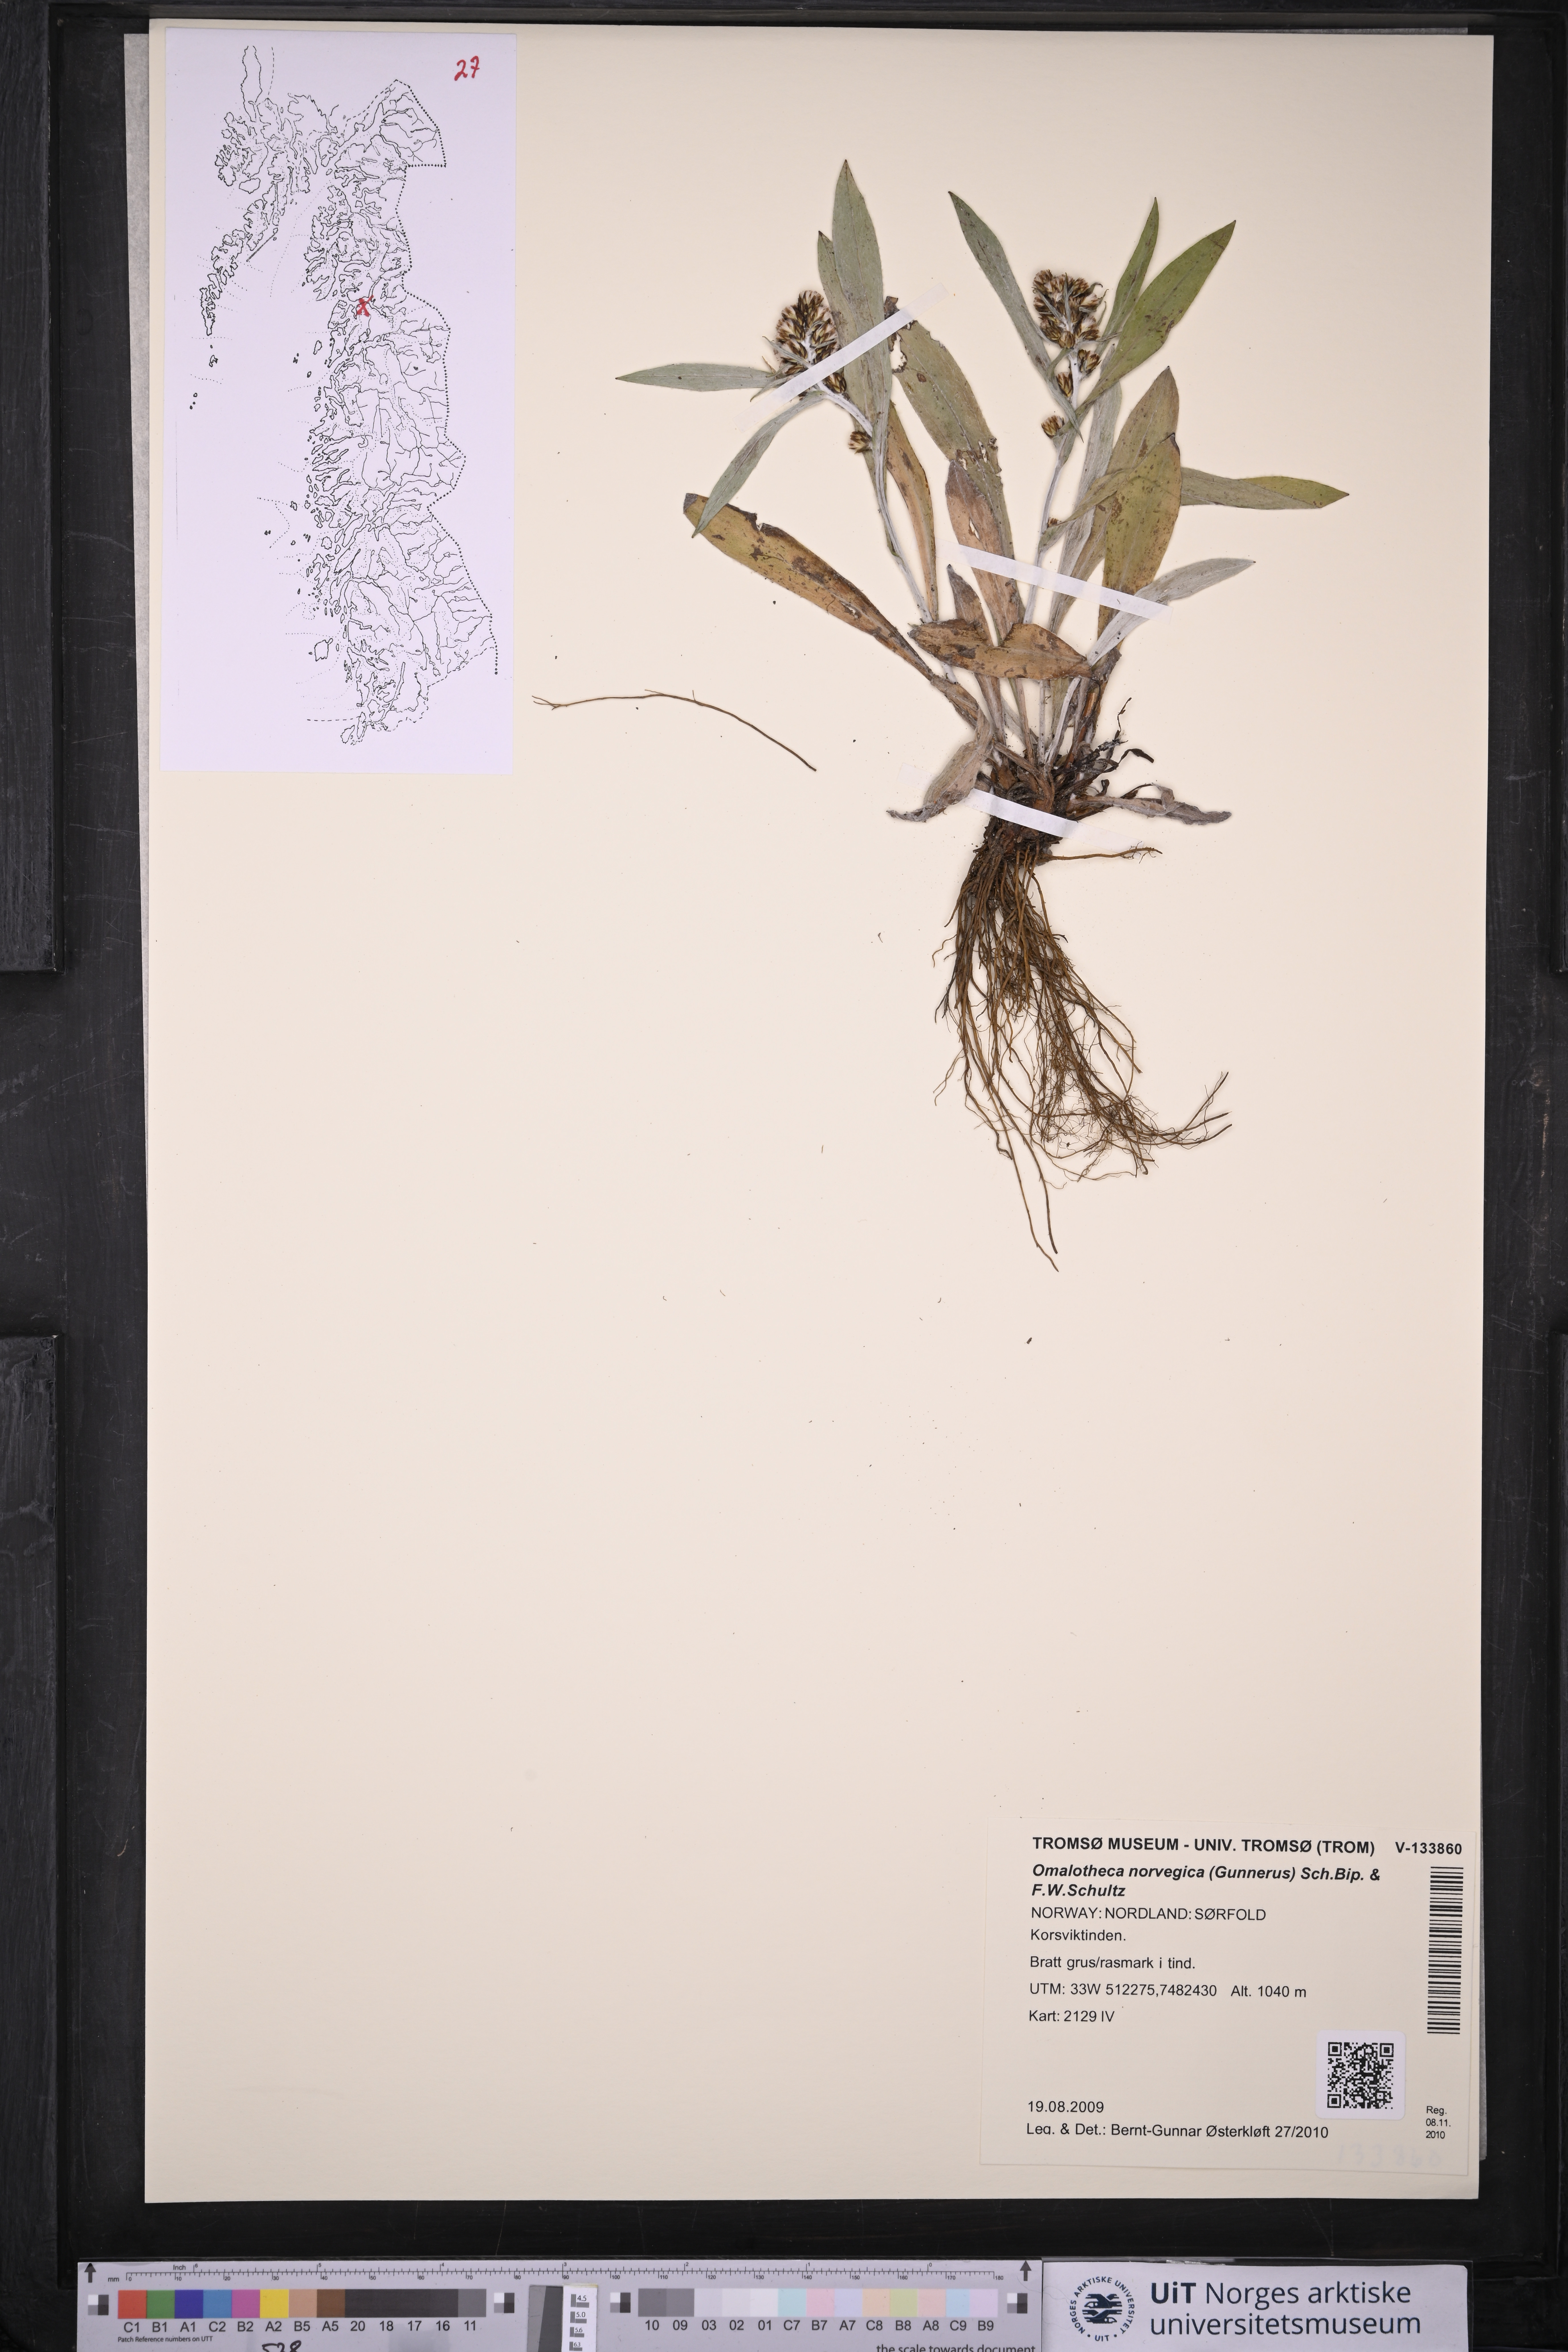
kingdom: Plantae
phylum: Tracheophyta
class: Magnoliopsida
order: Asterales
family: Asteraceae
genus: Omalotheca
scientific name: Omalotheca norvegica
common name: Norwegian arctic-cudweed
